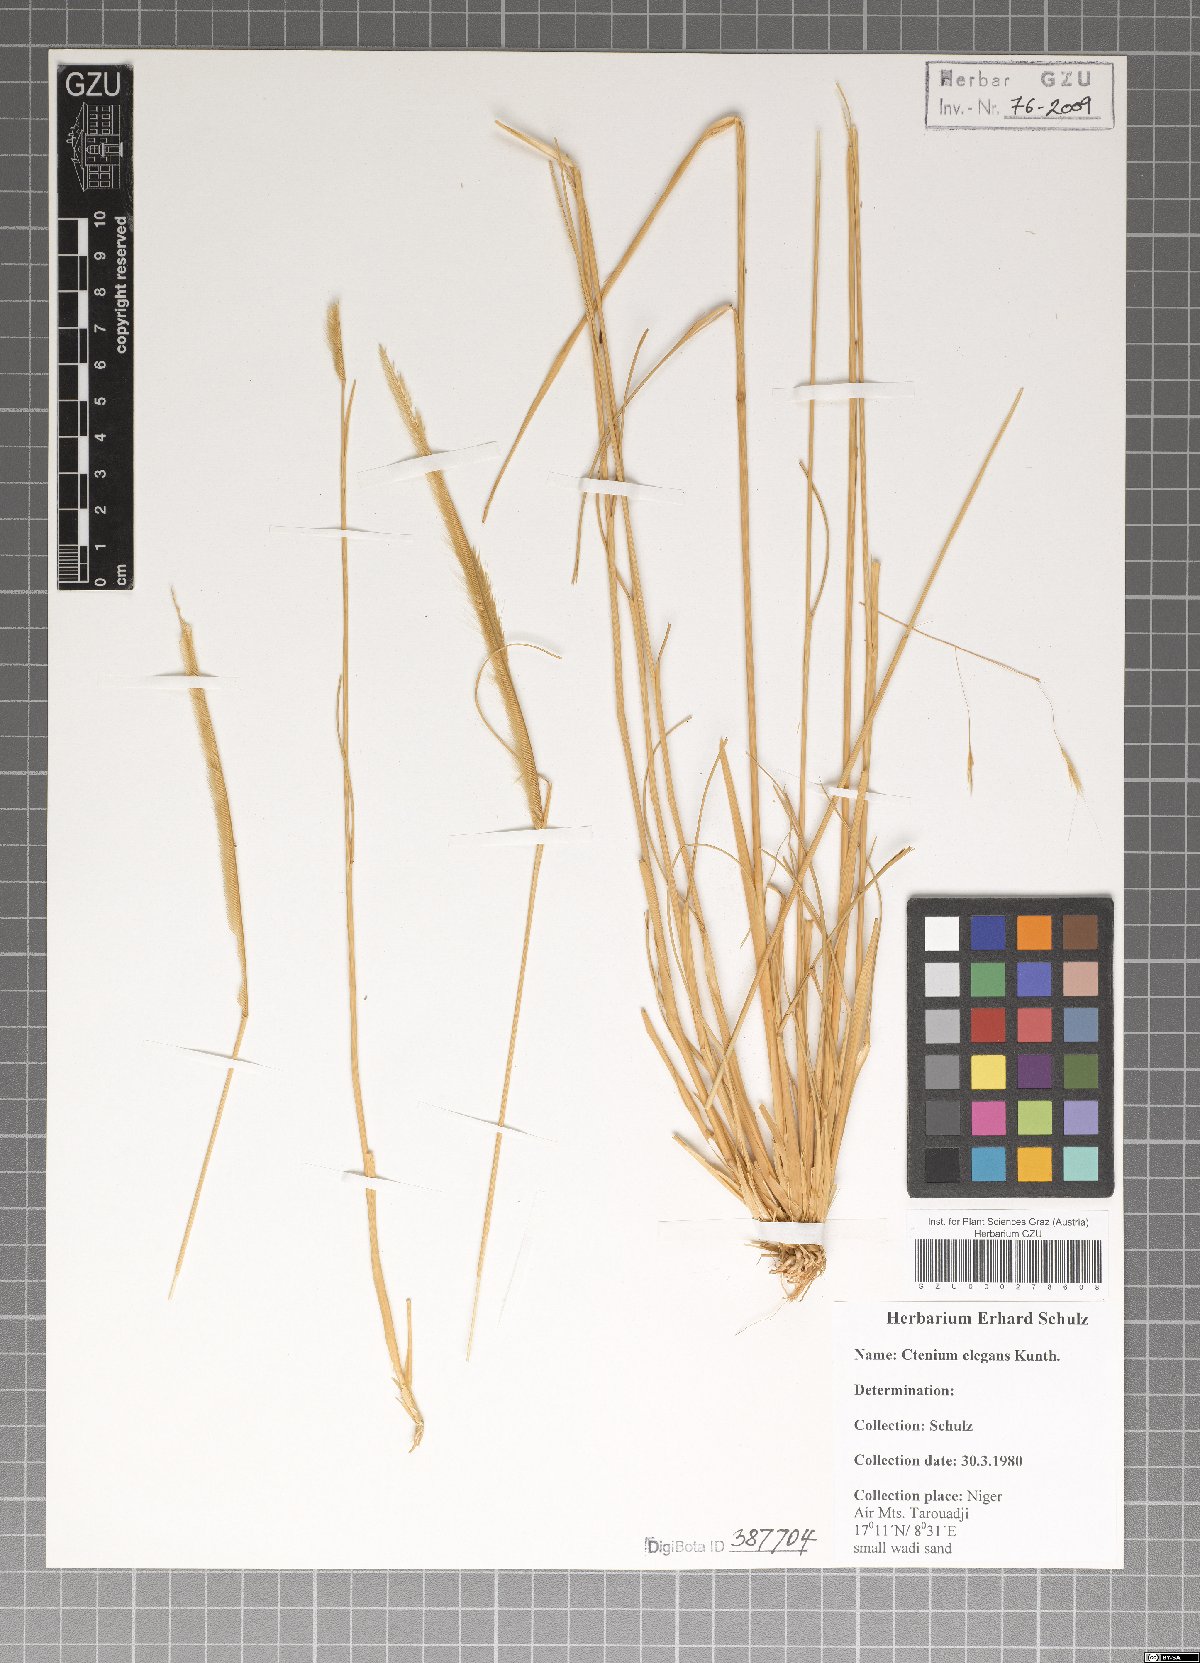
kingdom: Plantae
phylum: Tracheophyta
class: Liliopsida
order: Poales
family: Poaceae
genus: Ctenium
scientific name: Ctenium elegans
